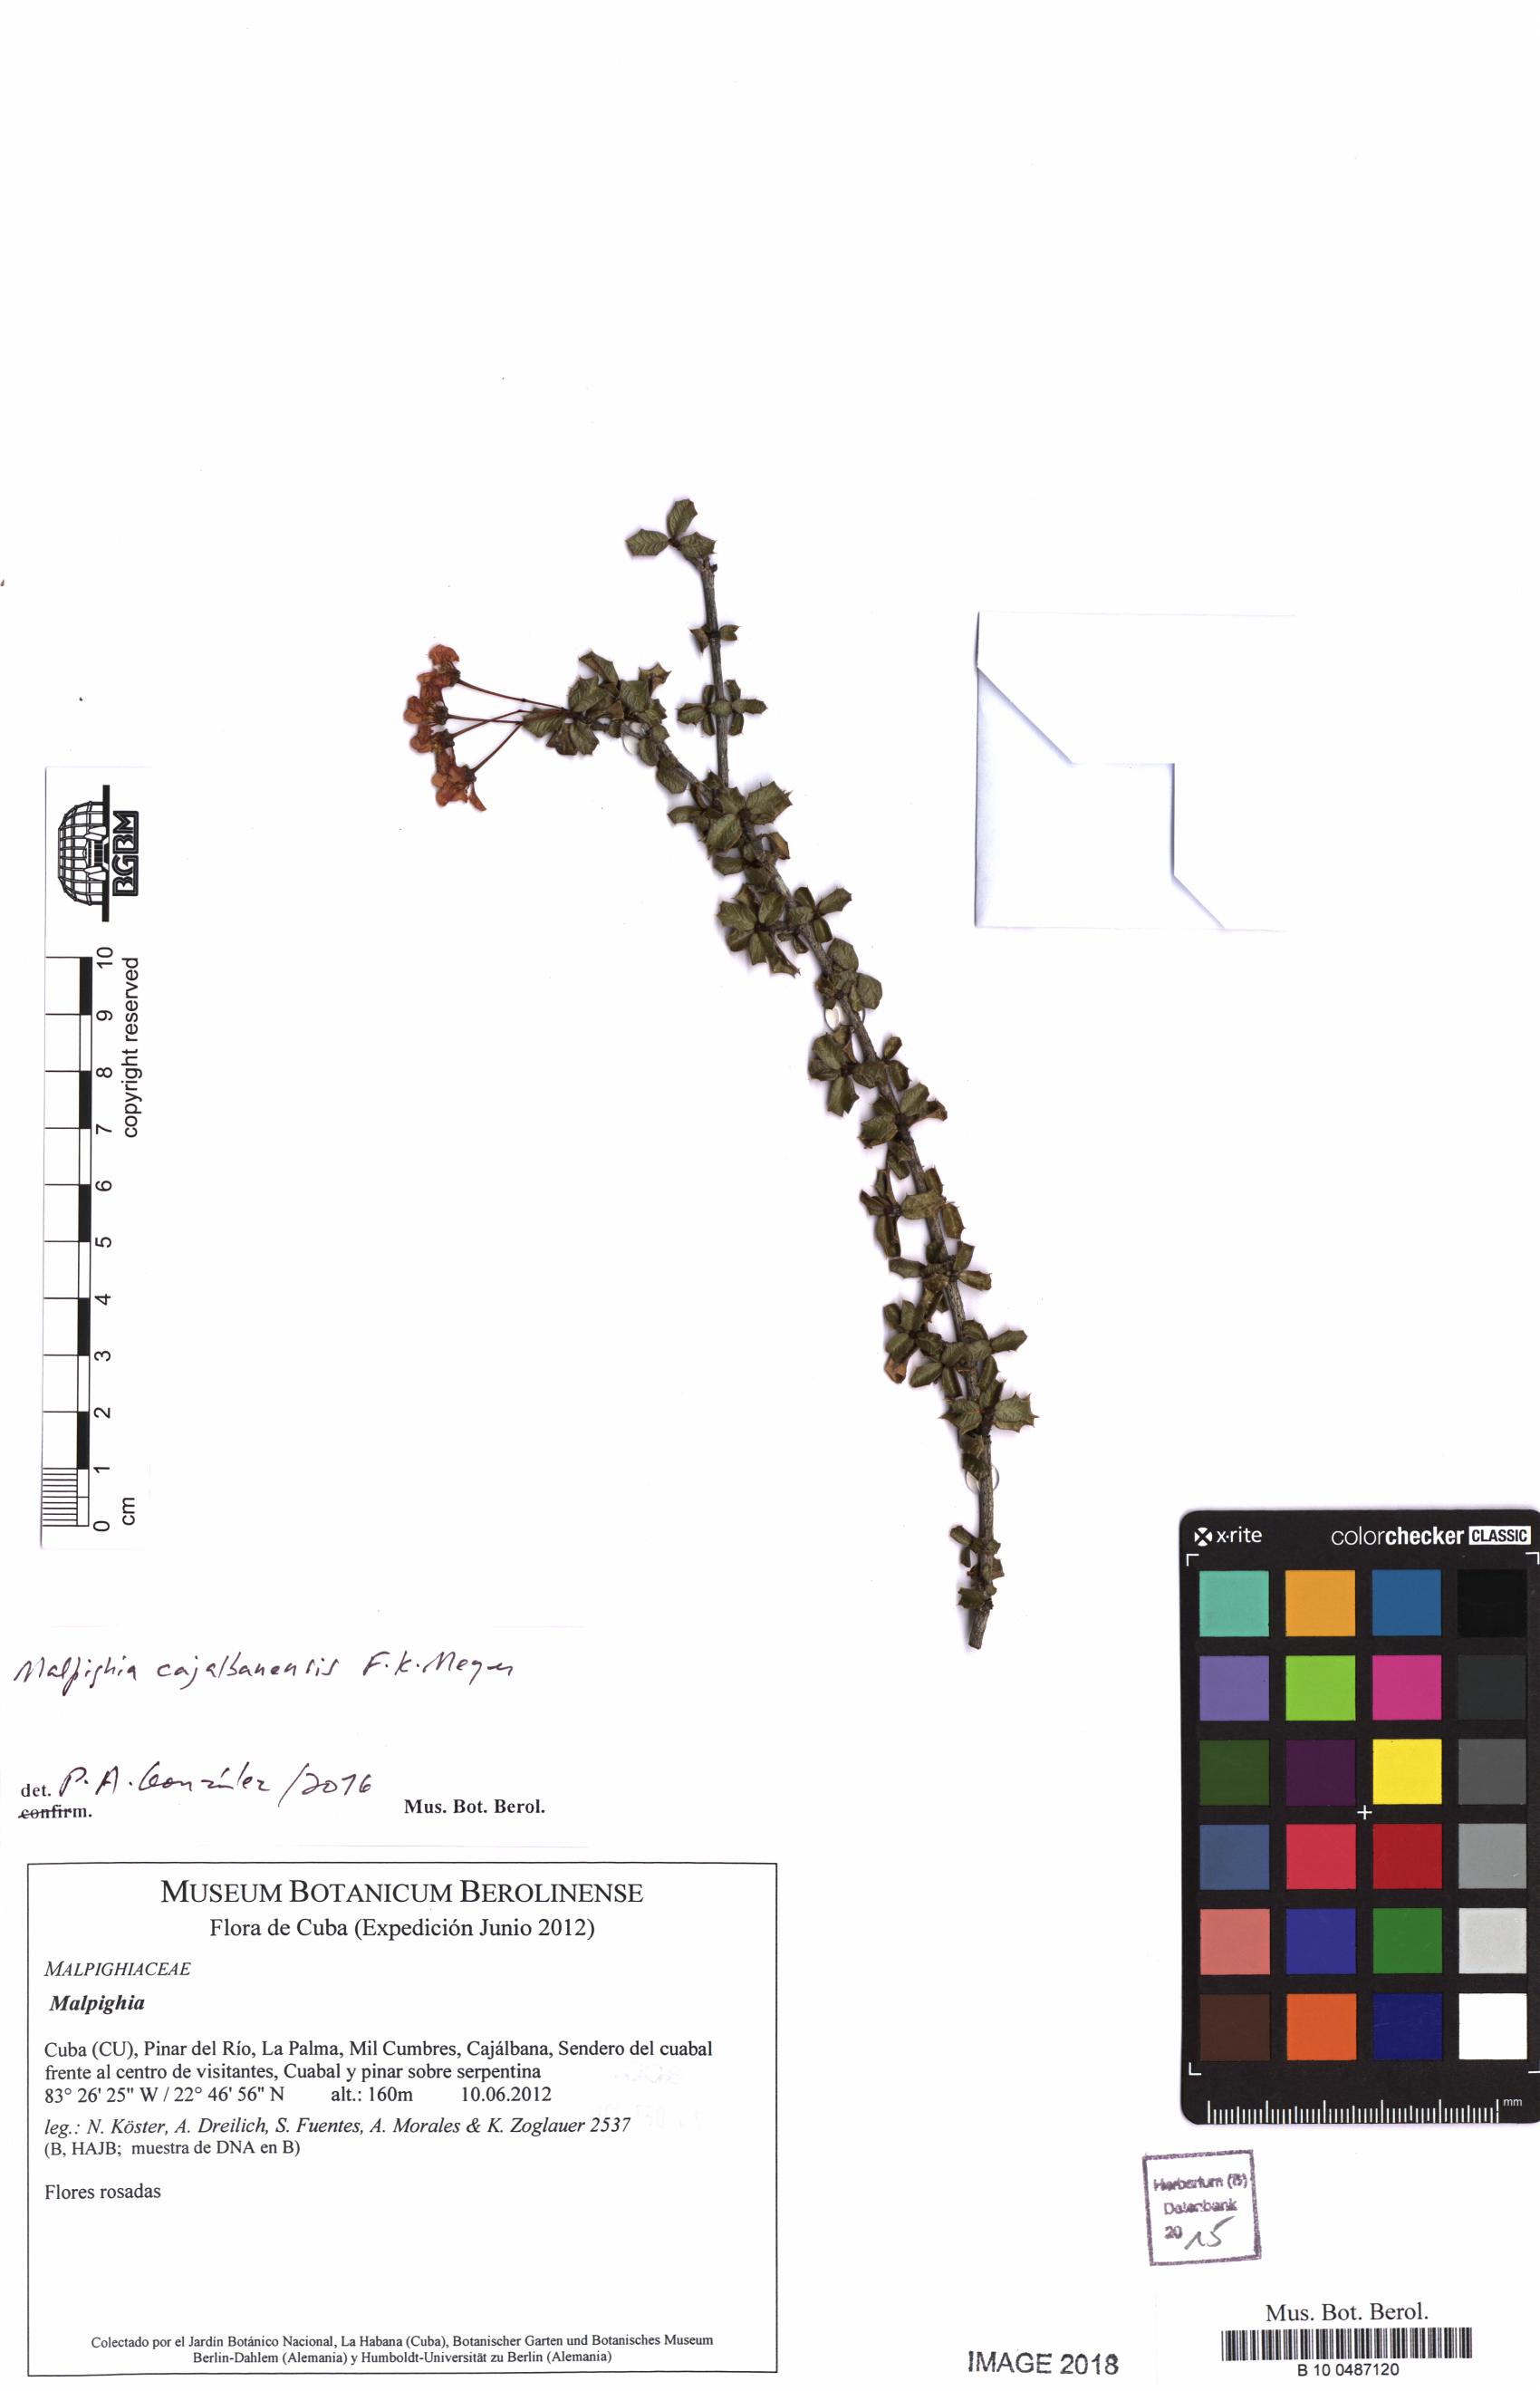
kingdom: Plantae
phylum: Tracheophyta
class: Magnoliopsida
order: Malpighiales
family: Malpighiaceae
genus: Malpighia
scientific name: Malpighia
